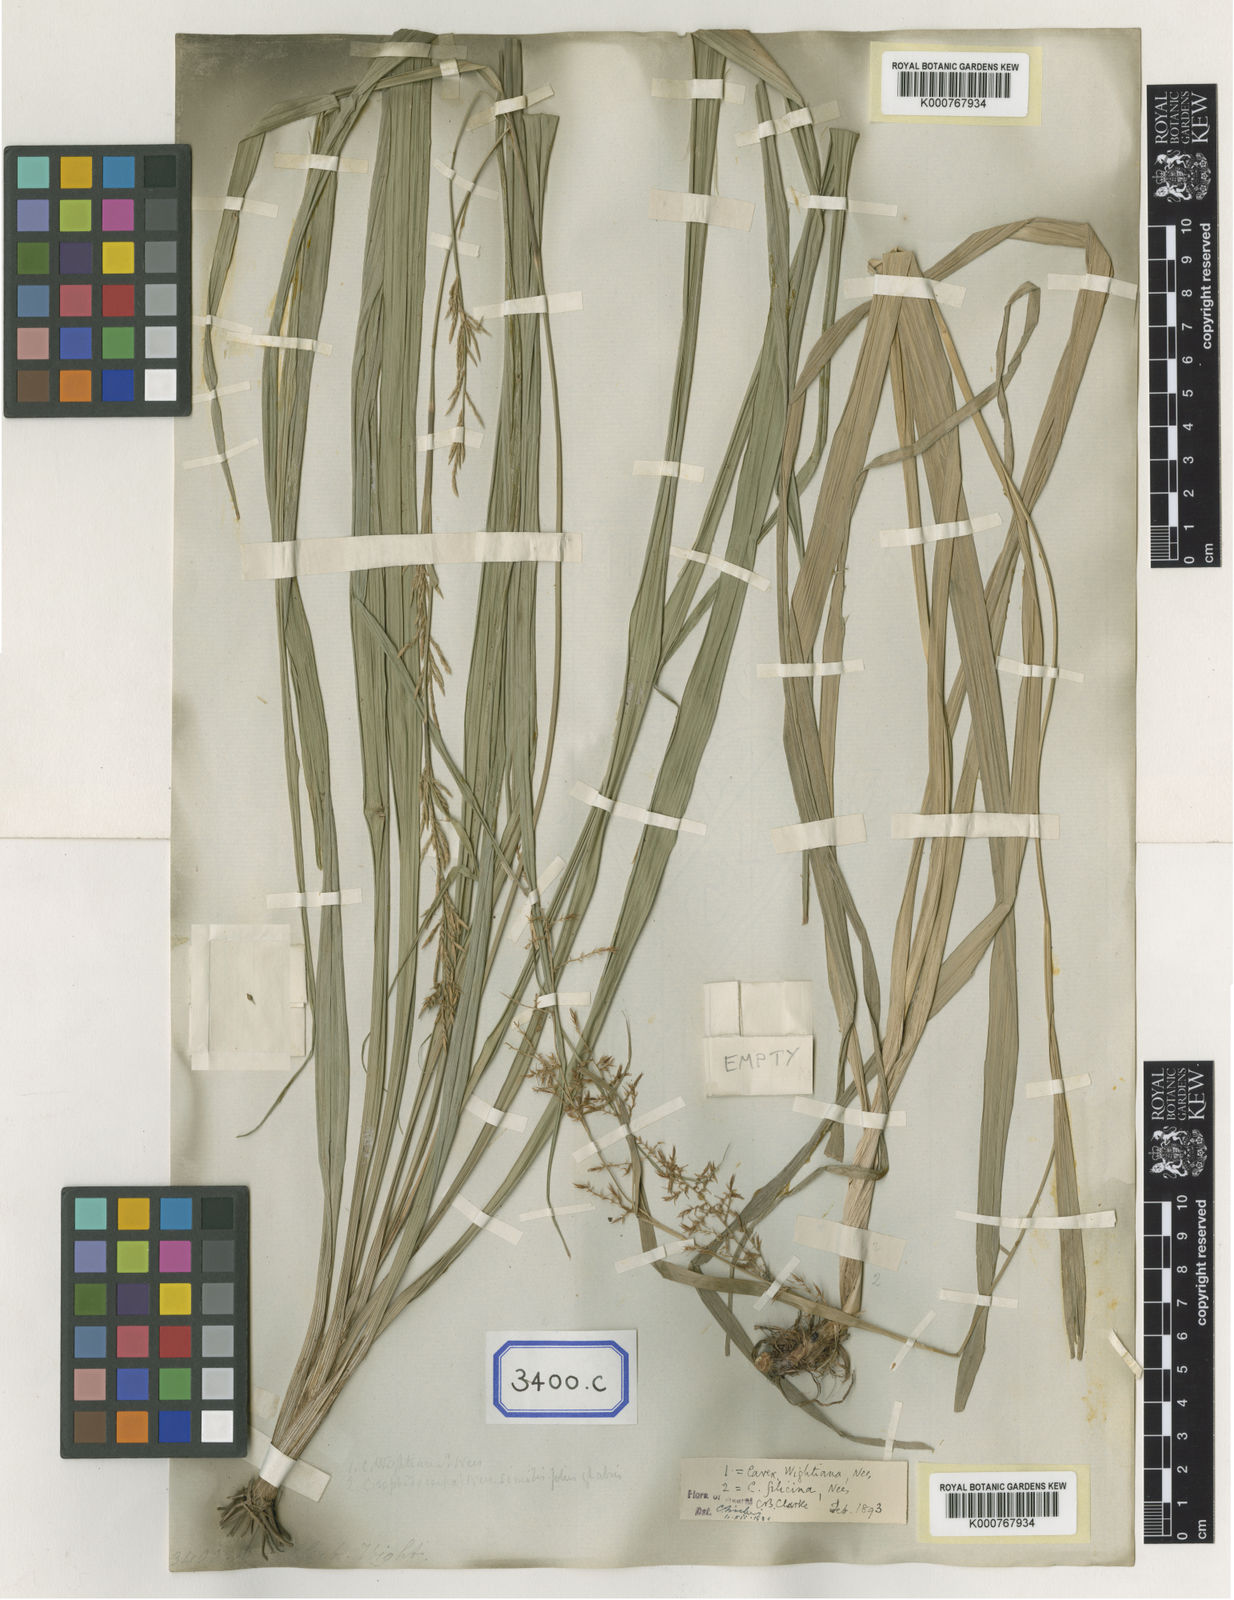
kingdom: Plantae
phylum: Tracheophyta
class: Liliopsida
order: Poales
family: Cyperaceae
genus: Carex
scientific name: Carex
